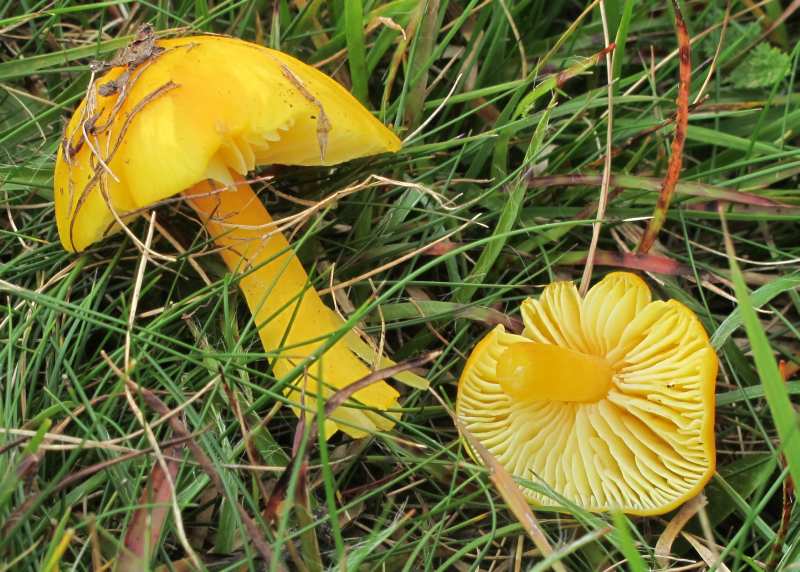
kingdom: Fungi
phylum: Basidiomycota
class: Agaricomycetes
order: Agaricales
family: Hygrophoraceae
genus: Hygrocybe
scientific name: Hygrocybe chlorophana
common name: gul vokshat
